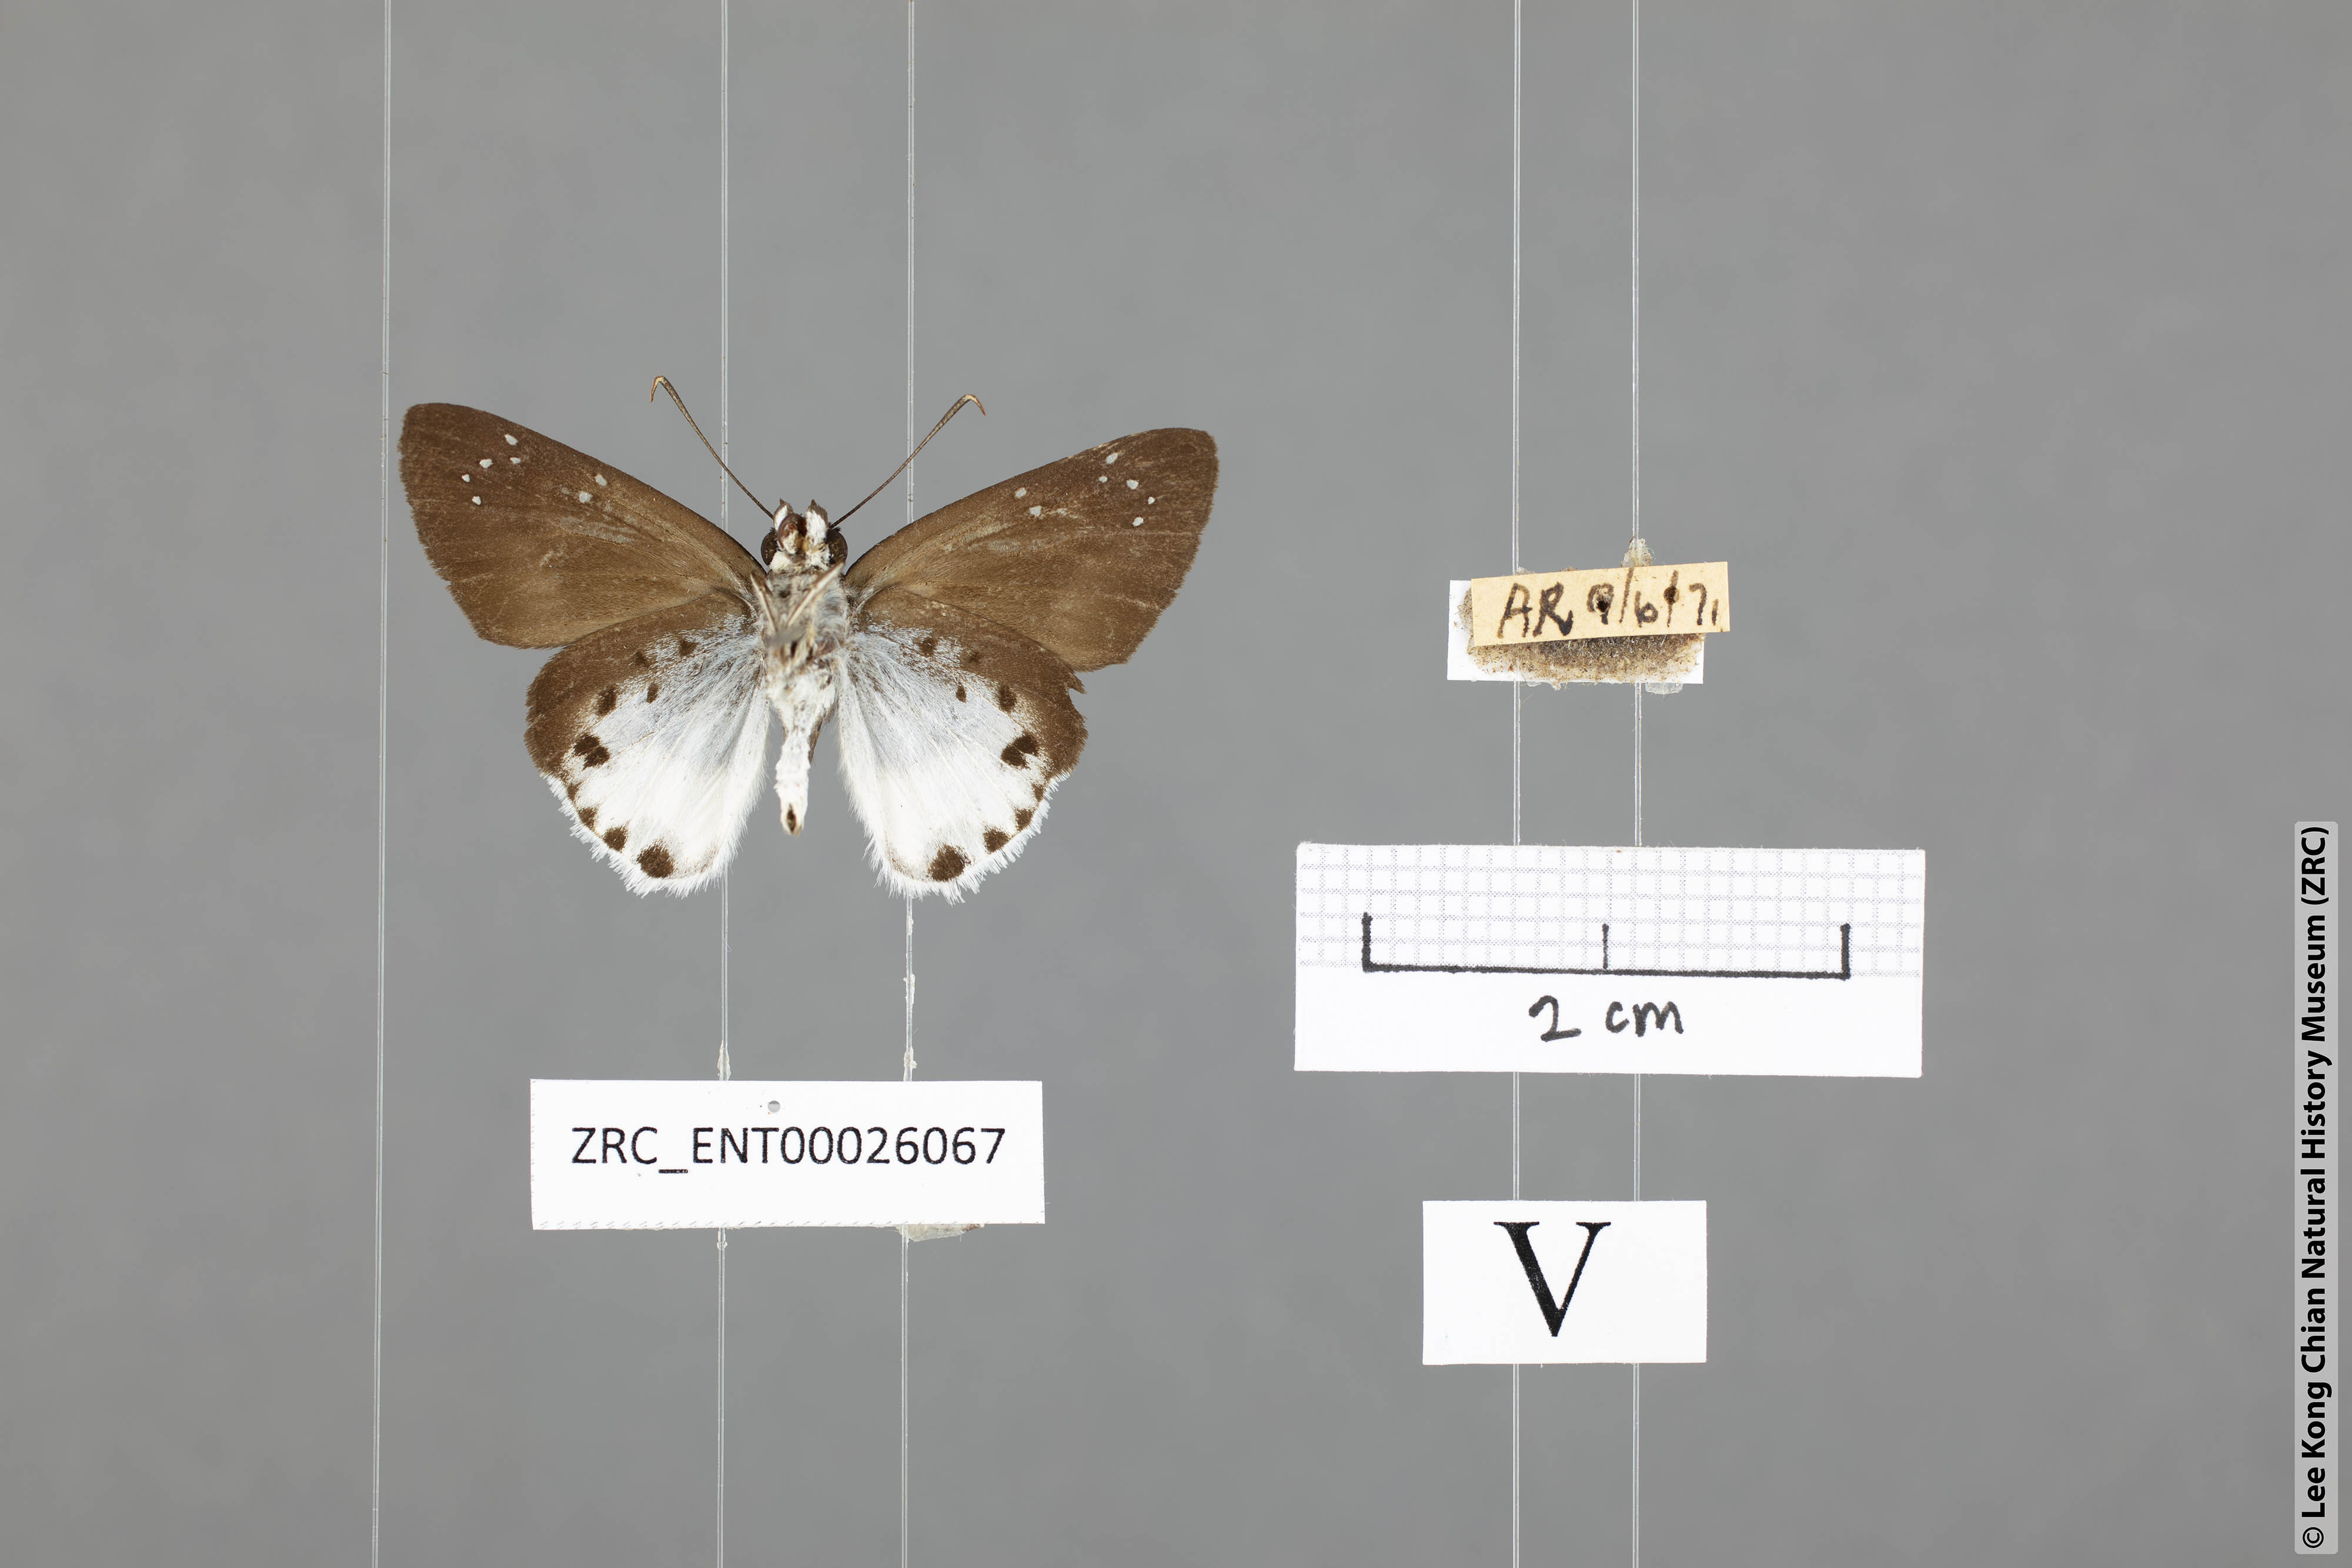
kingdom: Animalia
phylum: Arthropoda
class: Insecta
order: Lepidoptera
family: Hesperiidae
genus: Tagiades
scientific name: Tagiades waterstradti
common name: Waterstradt snow flat
